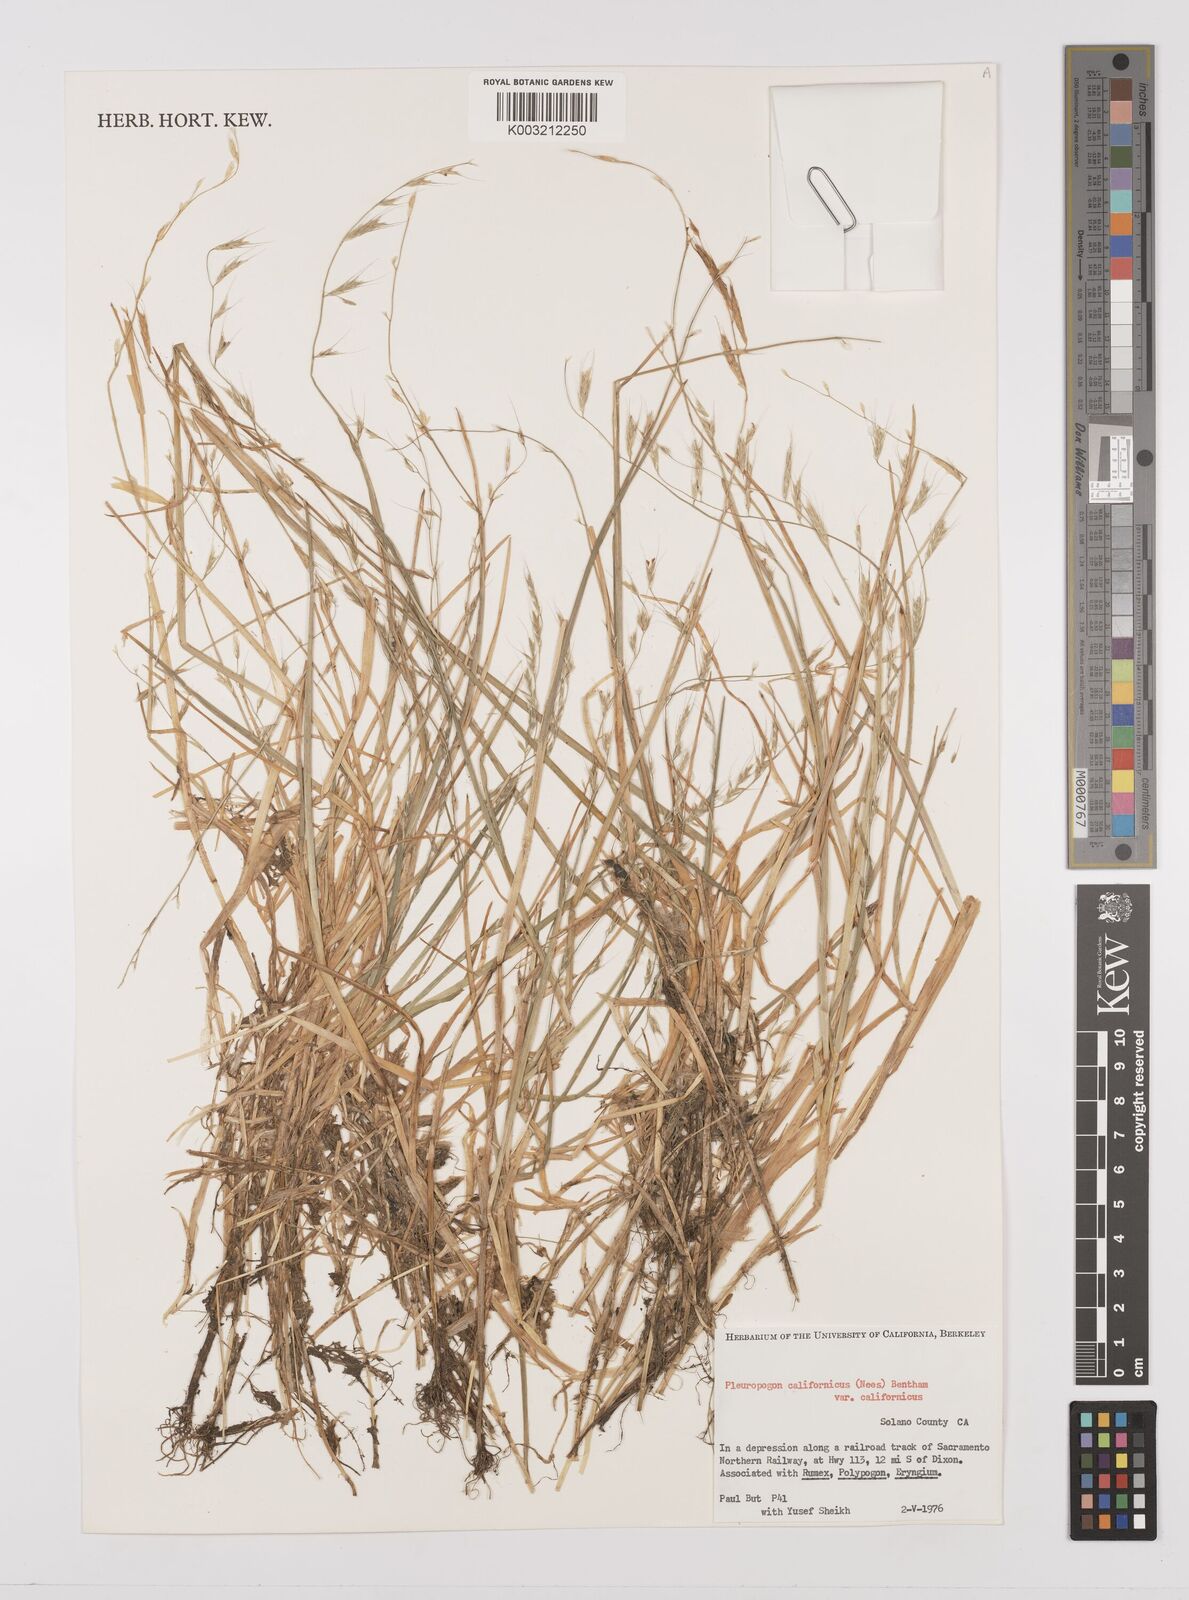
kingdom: Plantae
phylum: Tracheophyta
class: Liliopsida
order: Poales
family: Poaceae
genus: Pleuropogon
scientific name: Pleuropogon californicus
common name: California semaphore grass
